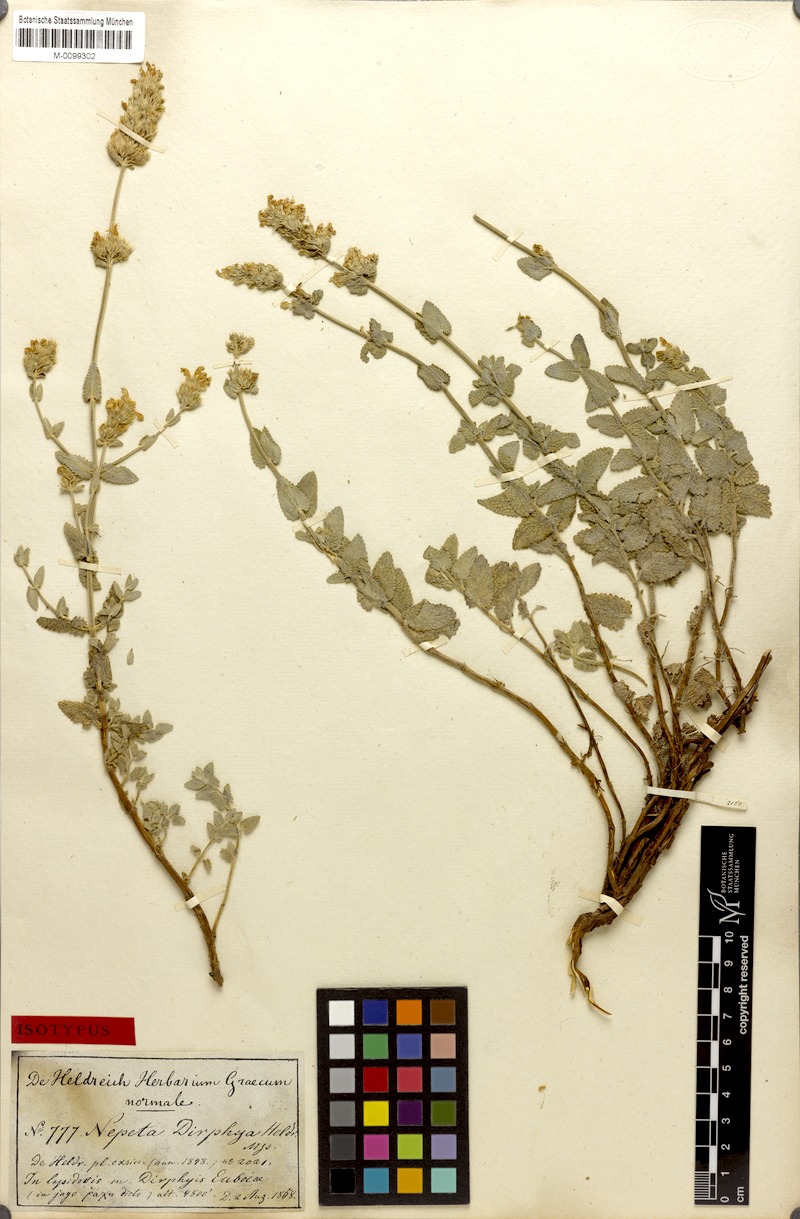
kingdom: Plantae
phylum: Tracheophyta
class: Magnoliopsida
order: Lamiales
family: Lamiaceae
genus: Nepeta
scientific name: Nepeta argolica
